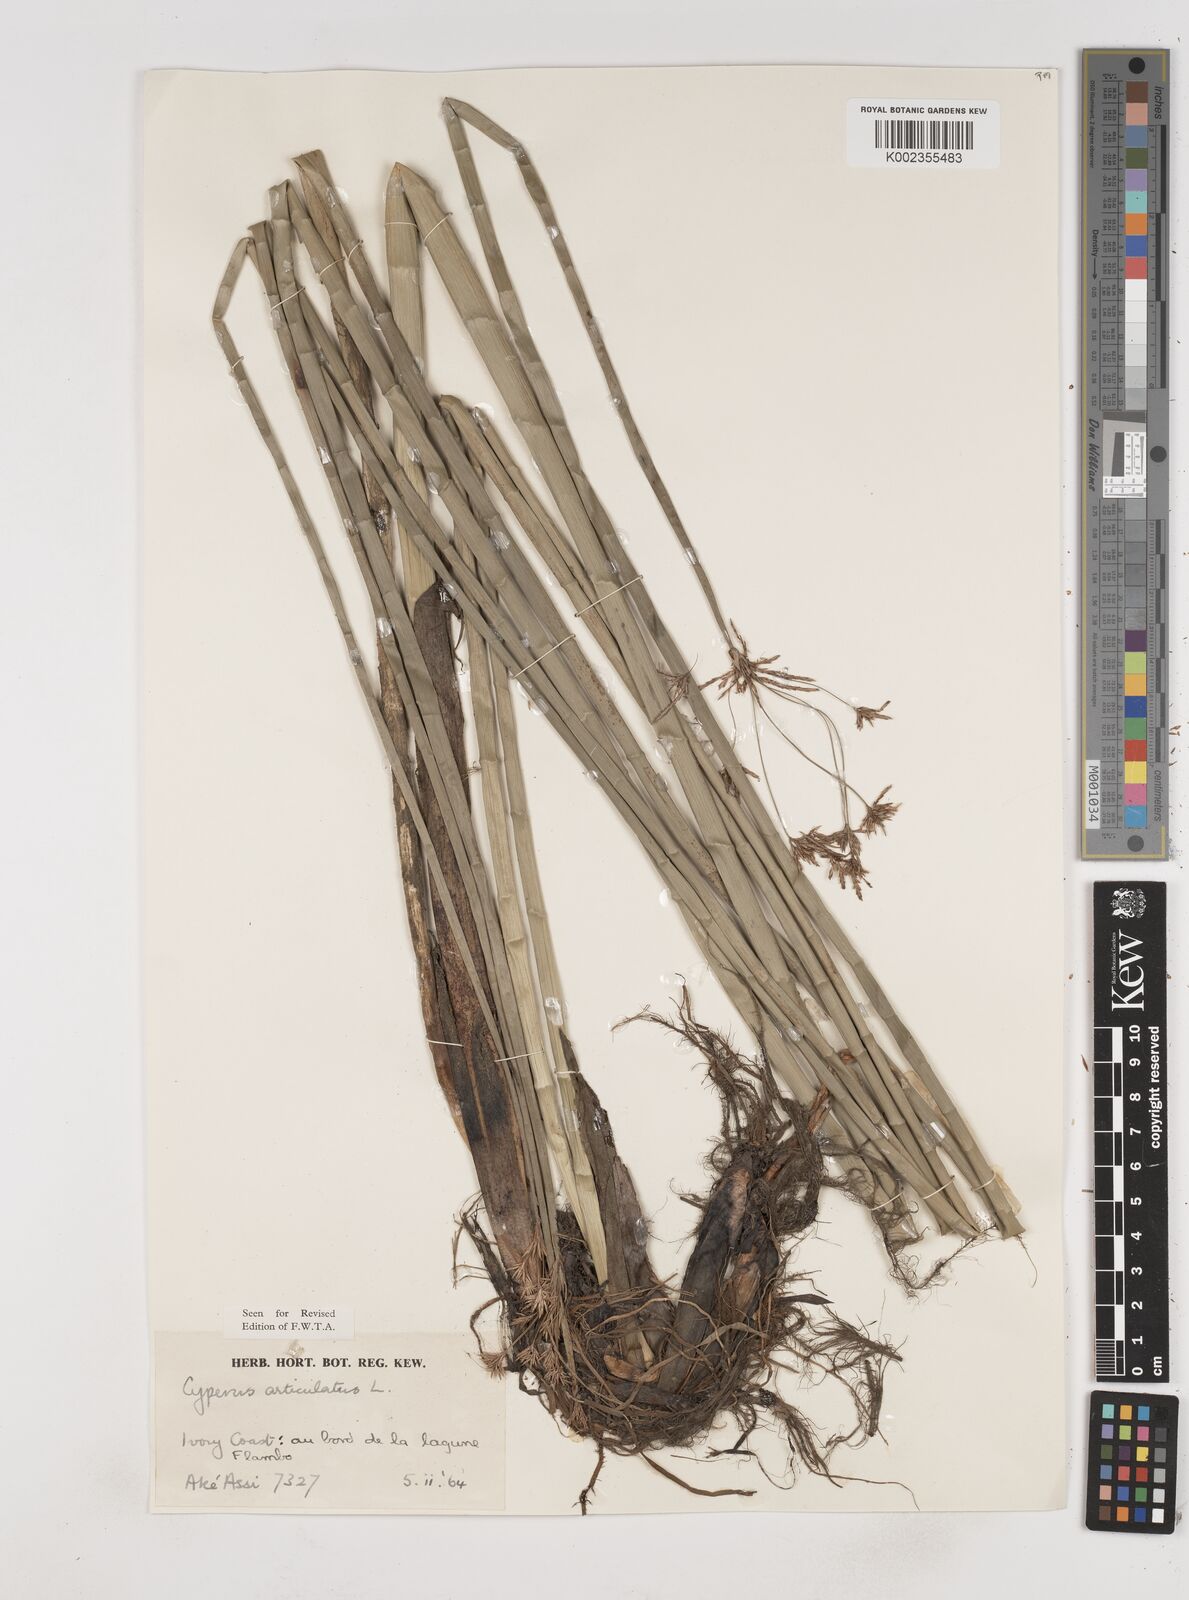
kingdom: Plantae
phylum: Tracheophyta
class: Liliopsida
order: Poales
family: Cyperaceae
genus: Cyperus
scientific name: Cyperus articulatus
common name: Jointed flatsedge
